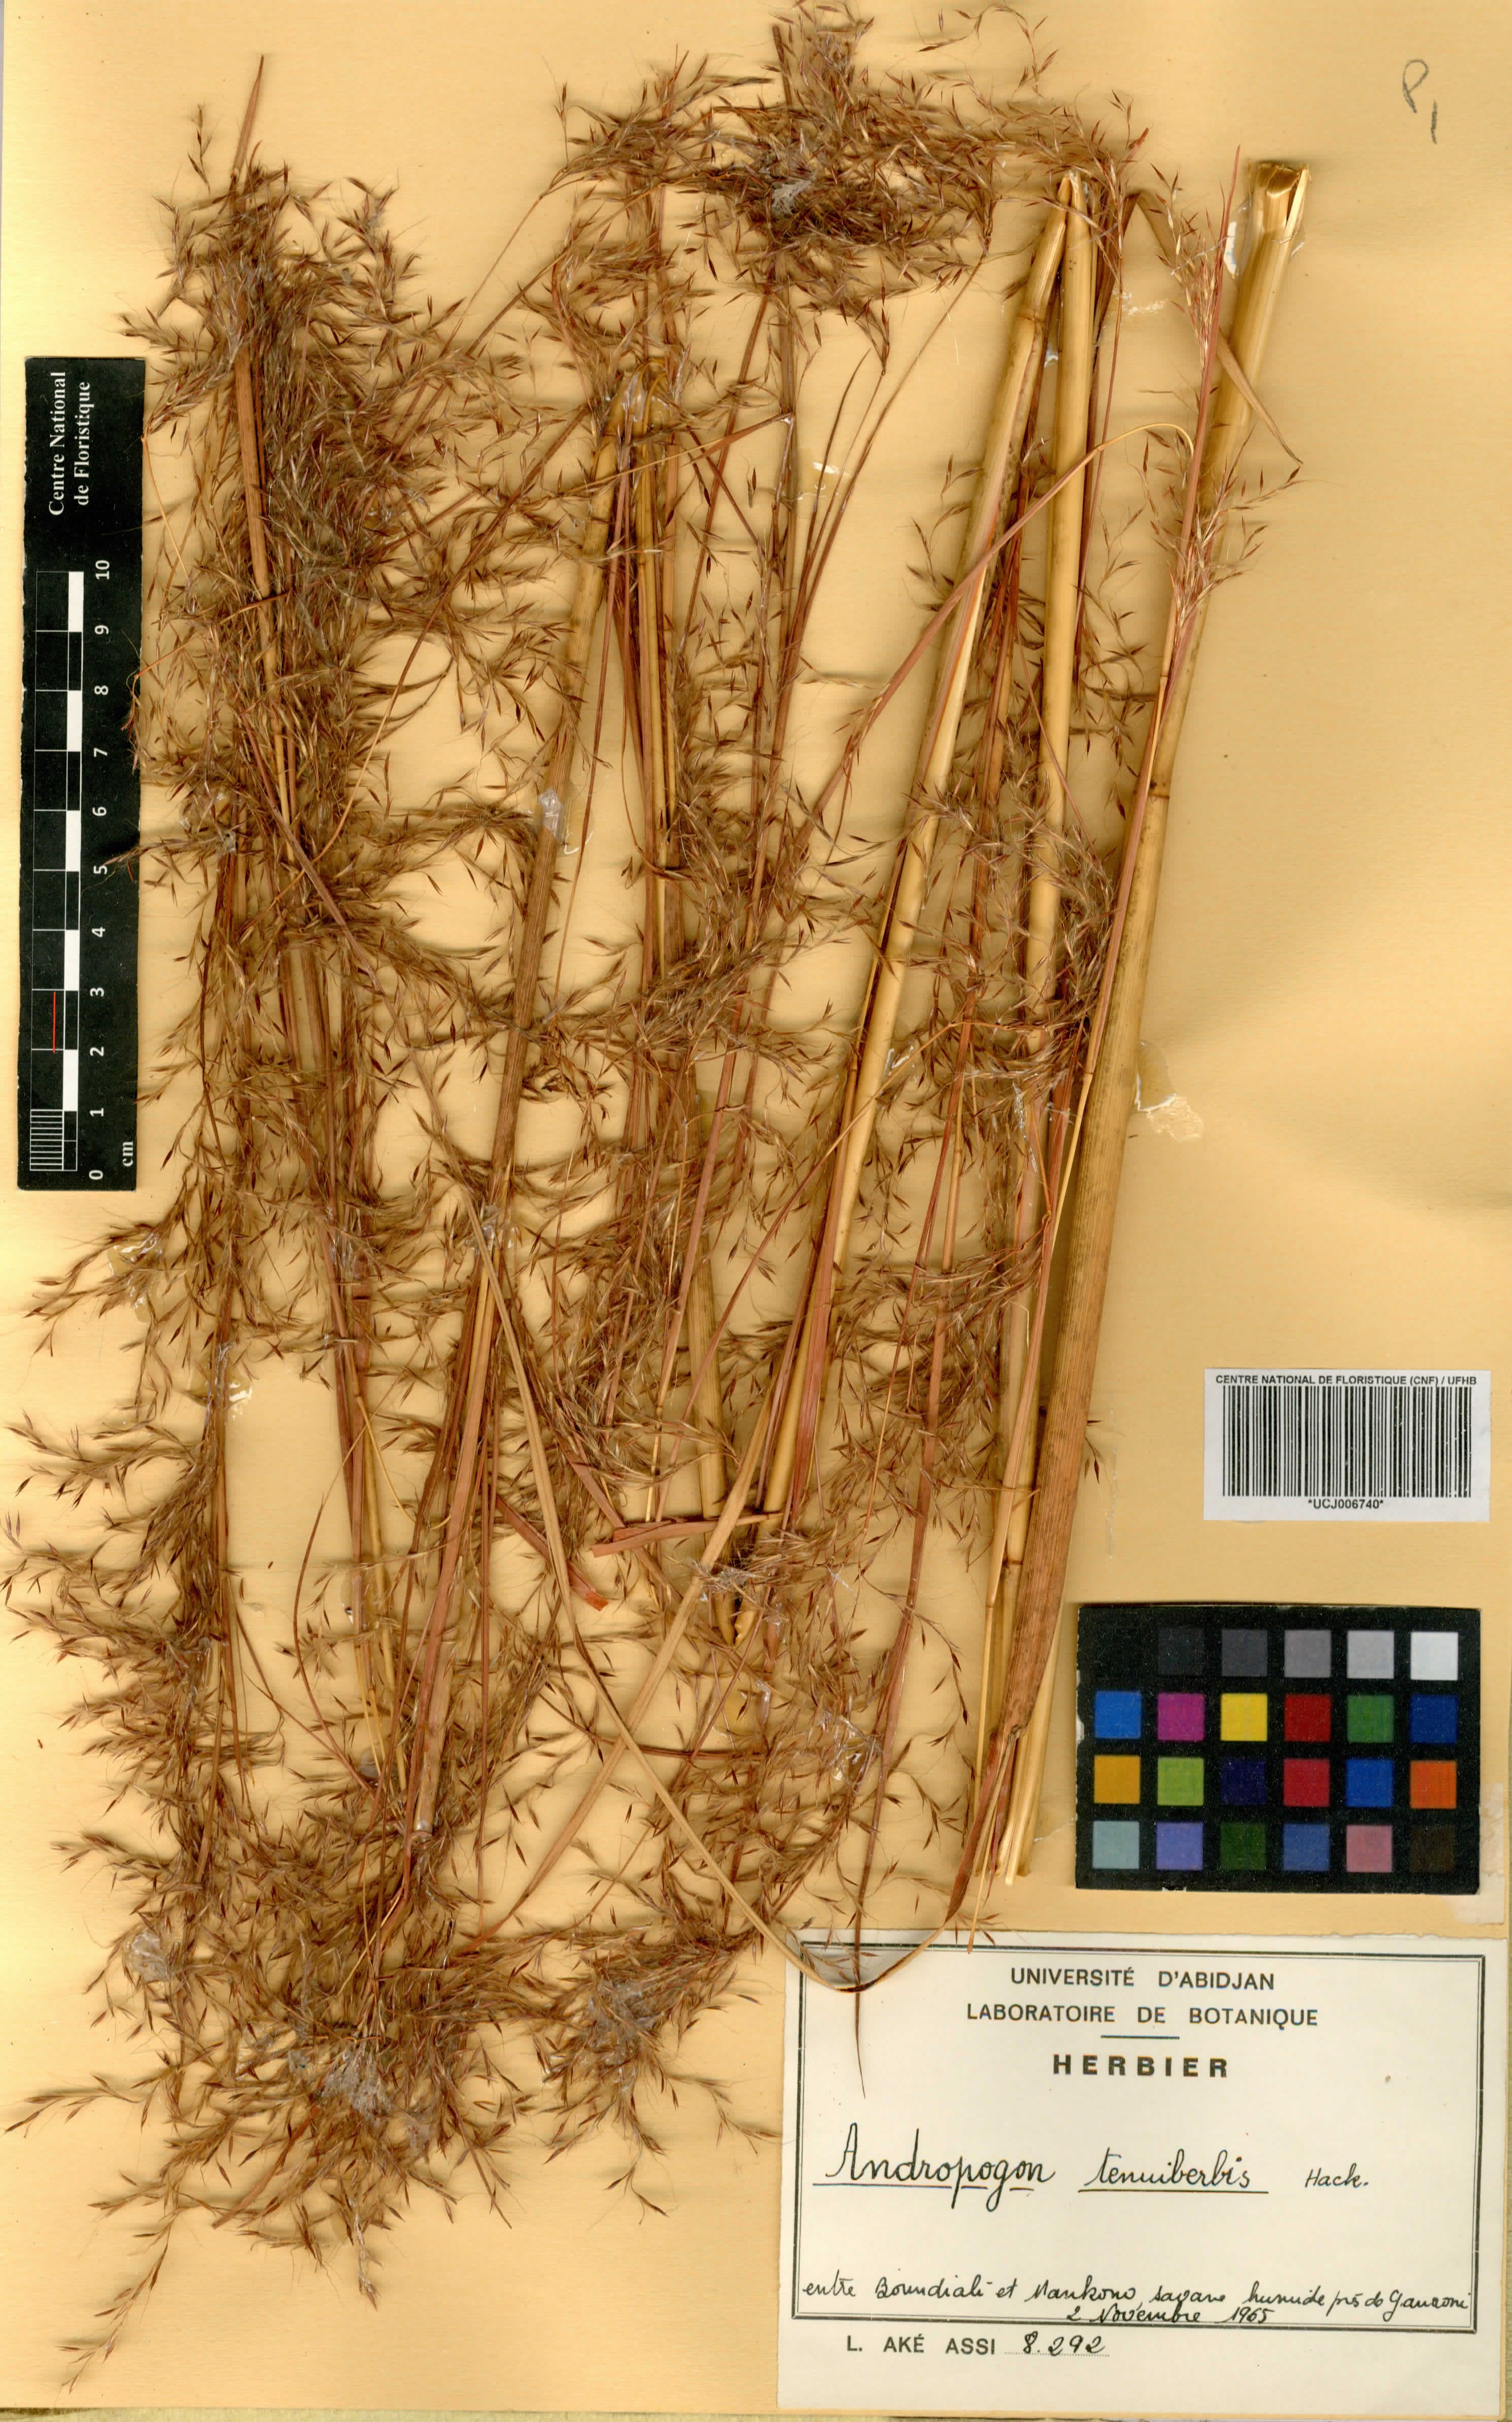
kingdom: Plantae
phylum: Tracheophyta
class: Liliopsida
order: Poales
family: Poaceae
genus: Andropogon
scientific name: Andropogon tenuiberbis
